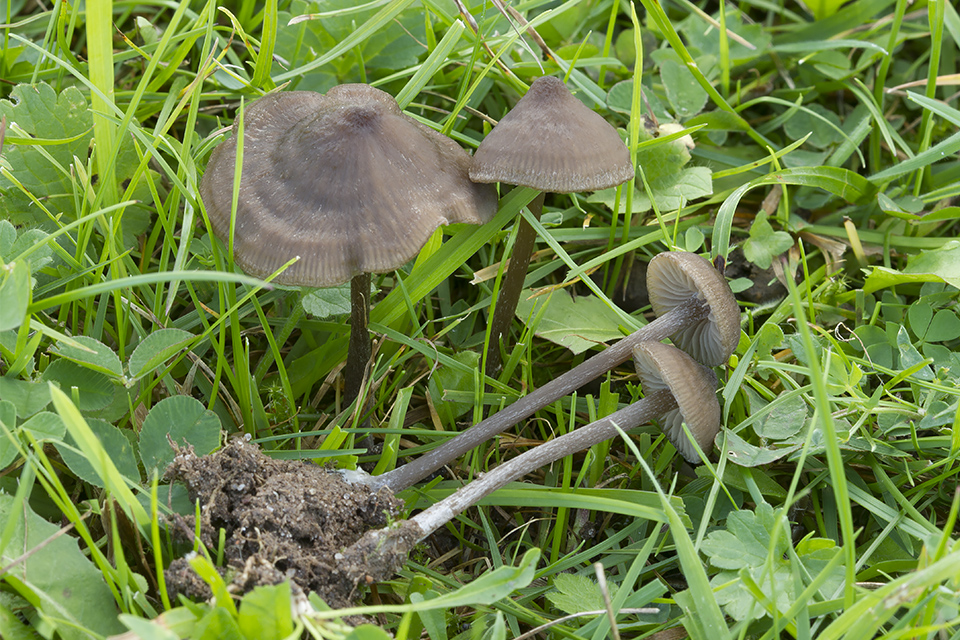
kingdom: Fungi
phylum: Basidiomycota
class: Agaricomycetes
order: Agaricales
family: Entolomataceae
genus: Entoloma
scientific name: Entoloma clandestinum
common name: tykbladet rødblad
